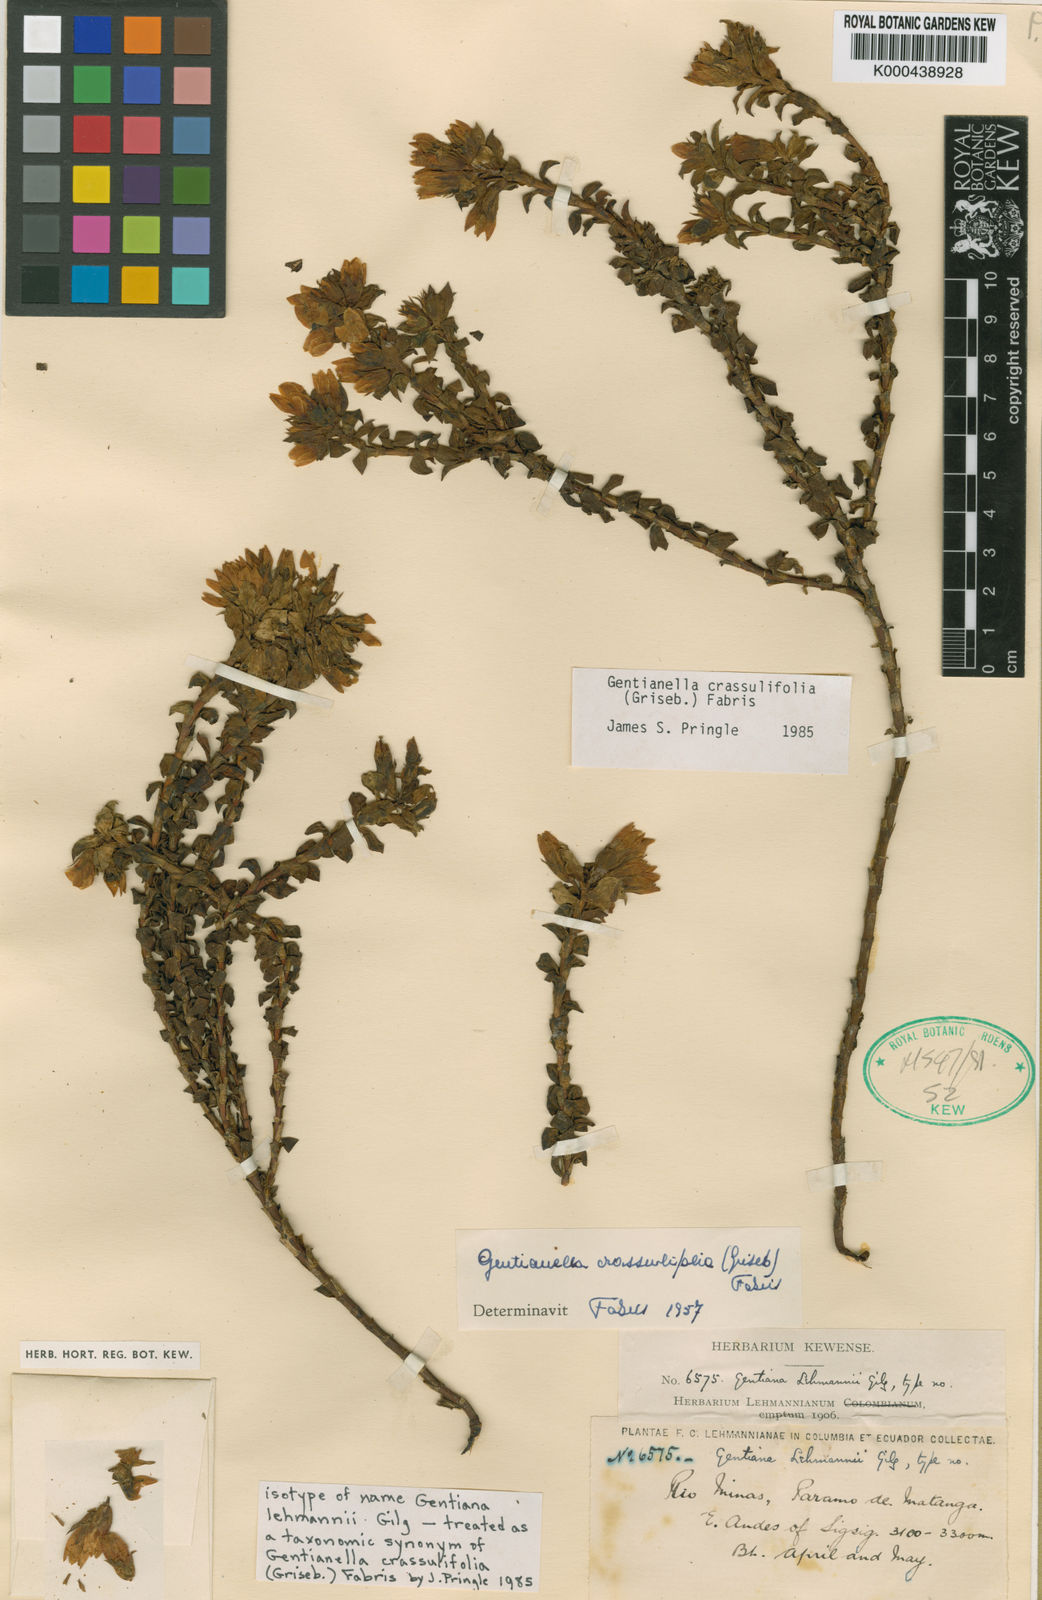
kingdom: Plantae
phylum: Tracheophyta
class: Magnoliopsida
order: Gentianales
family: Gentianaceae
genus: Gentianella
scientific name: Gentianella crassulifolia
